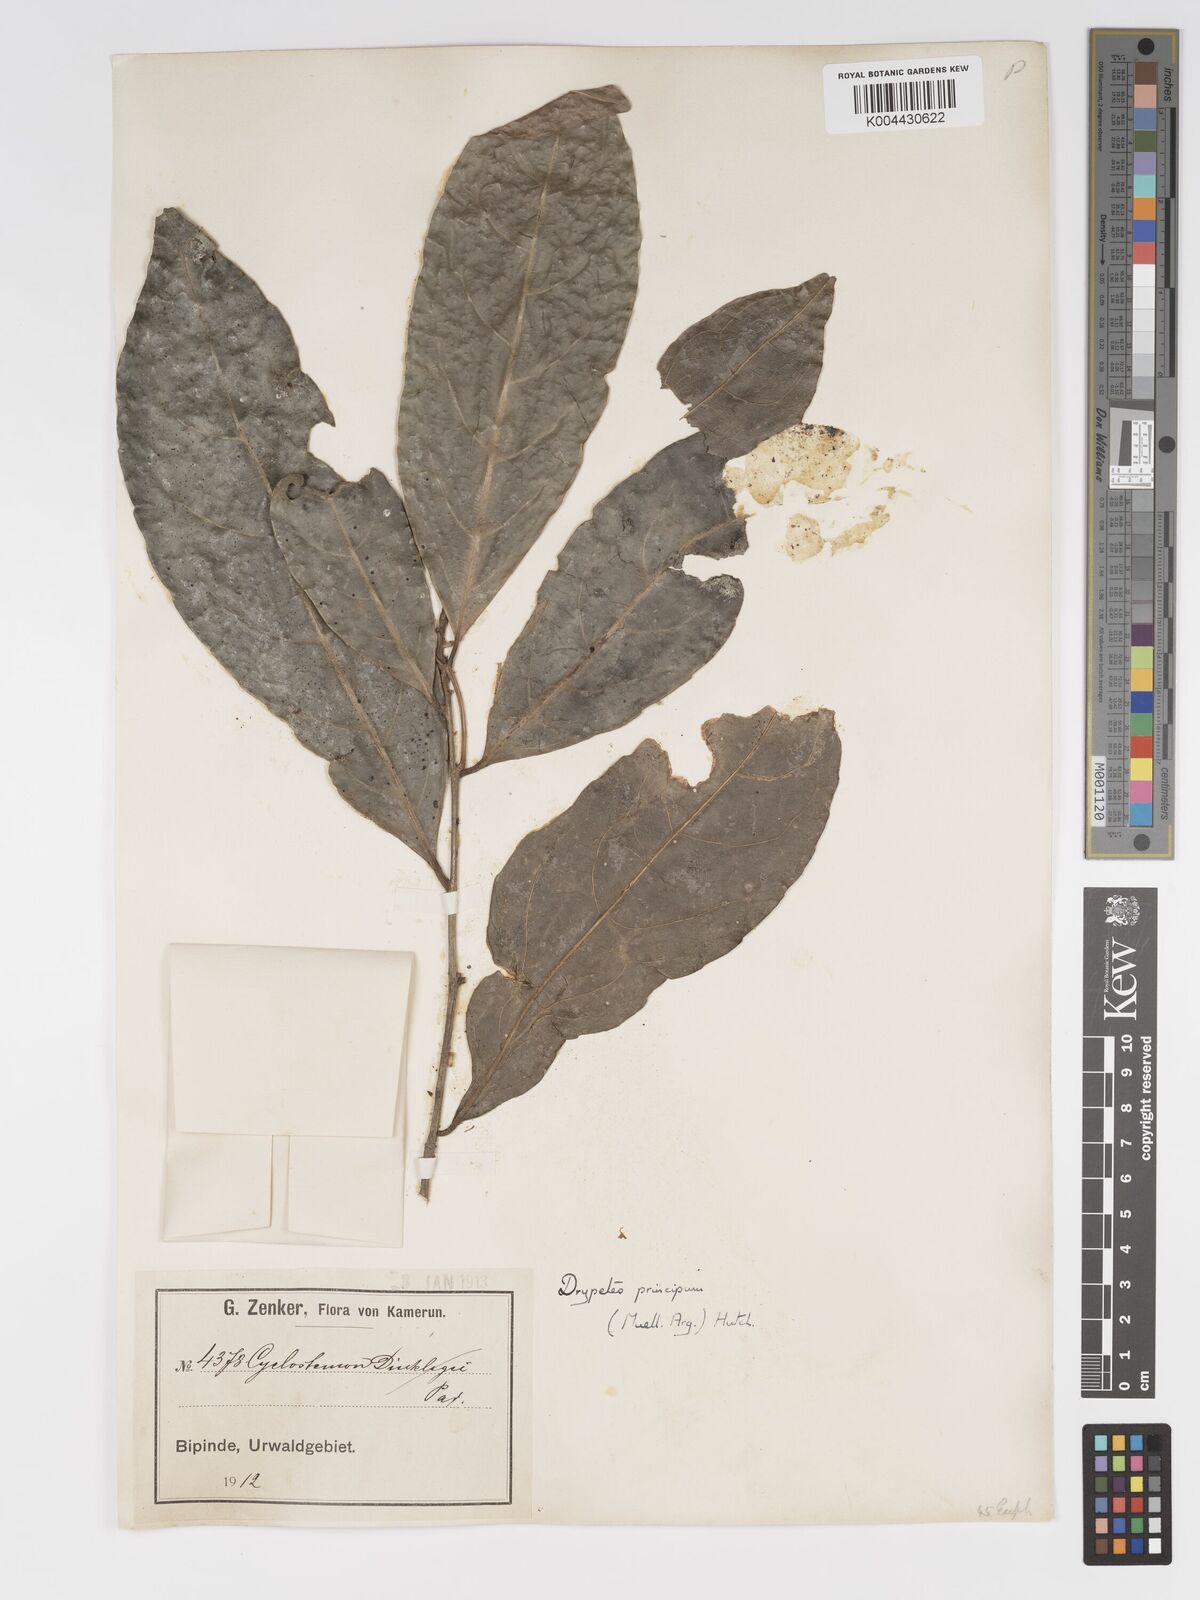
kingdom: Plantae
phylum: Tracheophyta
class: Magnoliopsida
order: Malpighiales
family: Putranjivaceae
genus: Drypetes
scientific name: Drypetes principum
